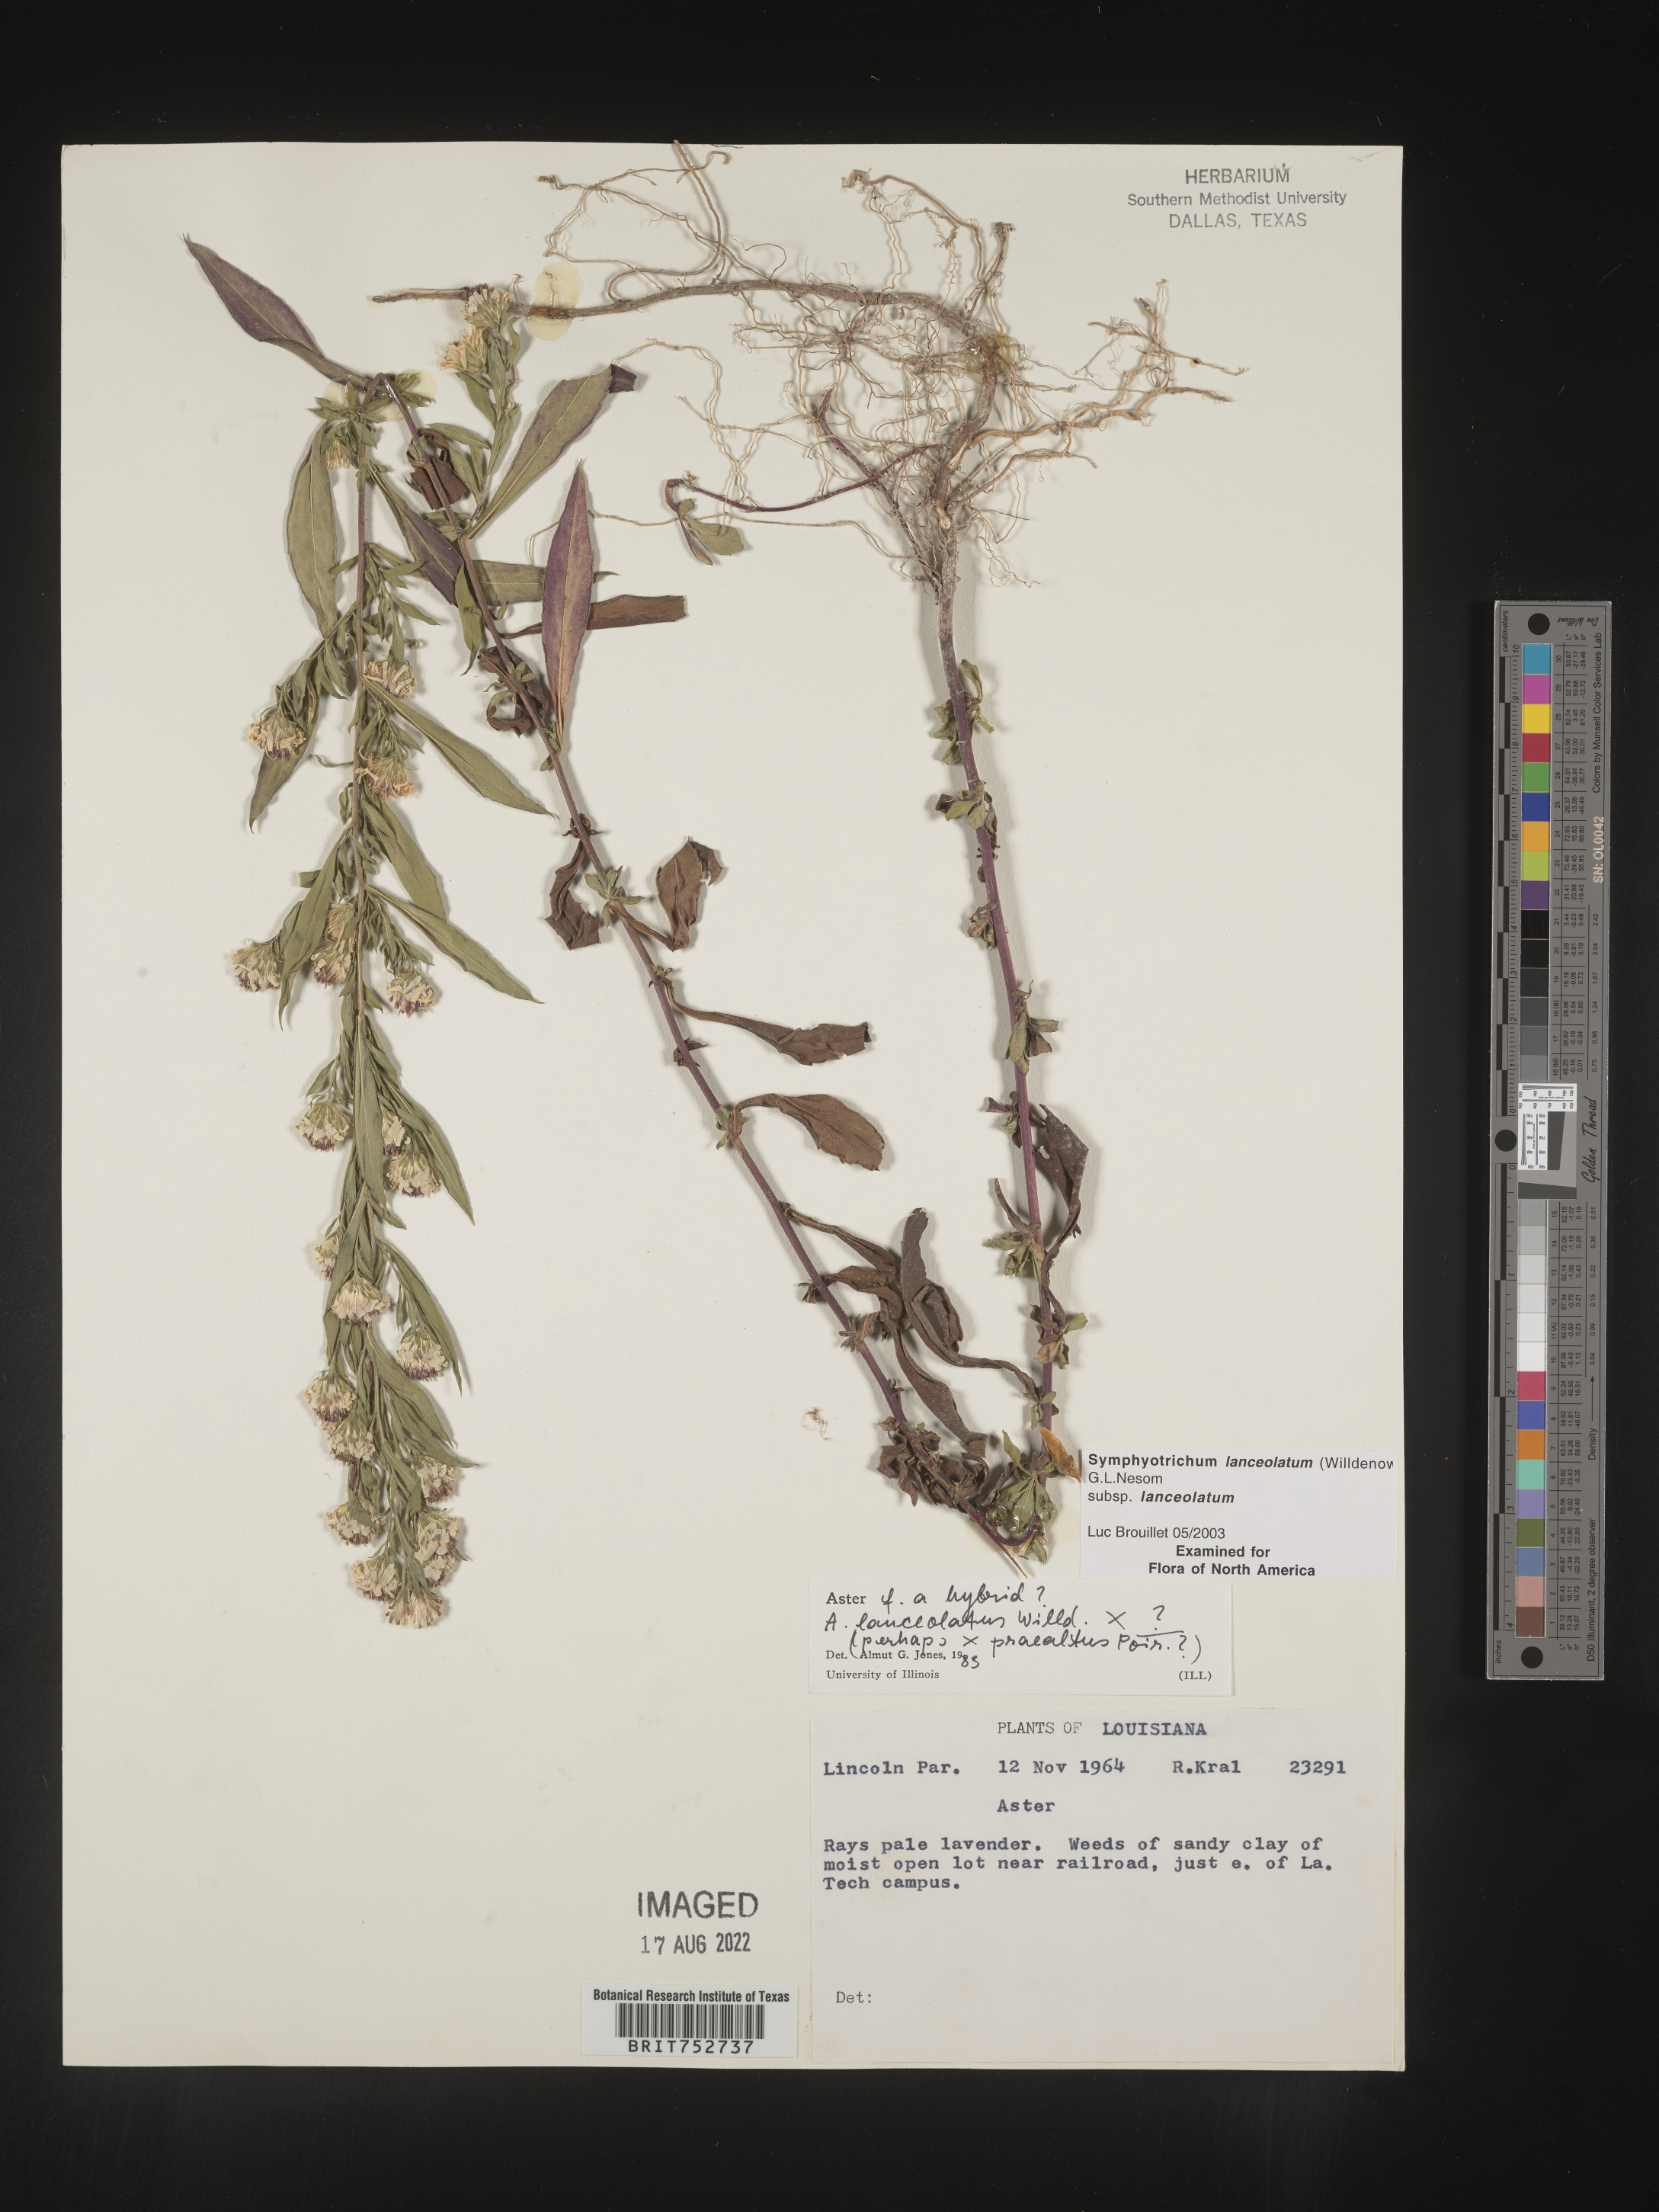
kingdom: Plantae
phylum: Tracheophyta
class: Magnoliopsida
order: Asterales
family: Asteraceae
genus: Symphyotrichum
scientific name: Symphyotrichum lanceolatum
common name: Panicled aster
